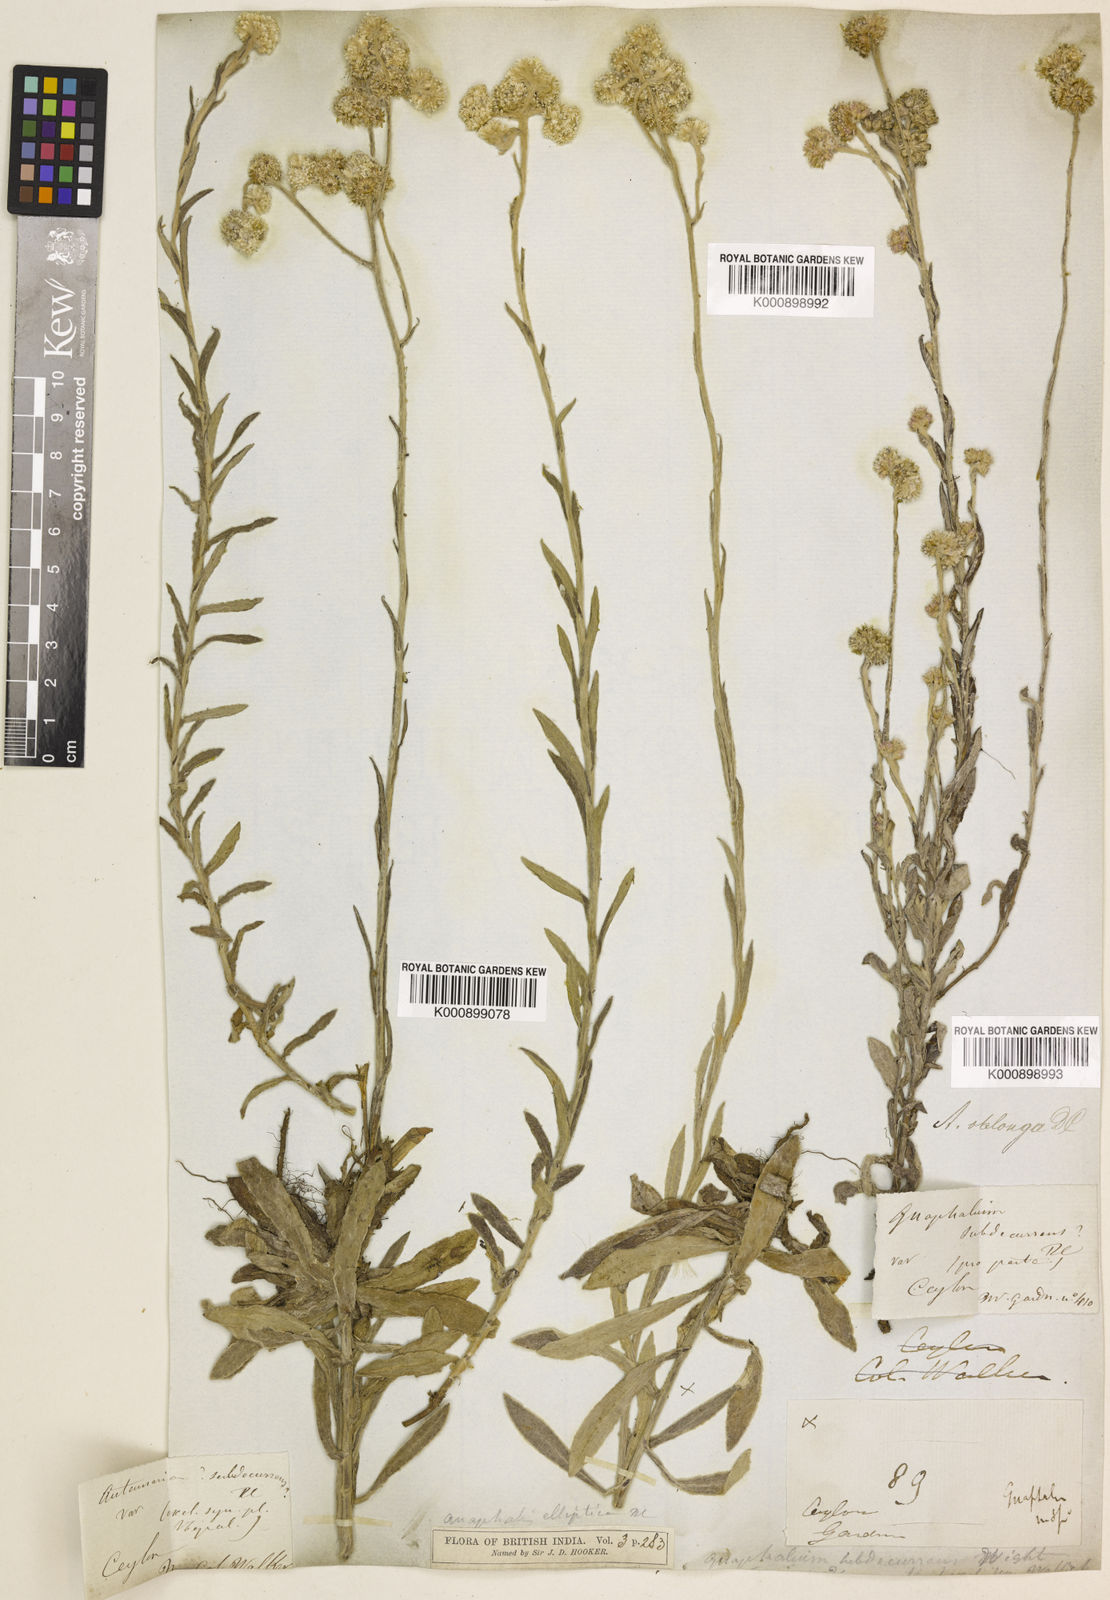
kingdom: Plantae
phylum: Tracheophyta
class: Magnoliopsida
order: Asterales
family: Asteraceae
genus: Anaphalis
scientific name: Anaphalis subdecurrens
